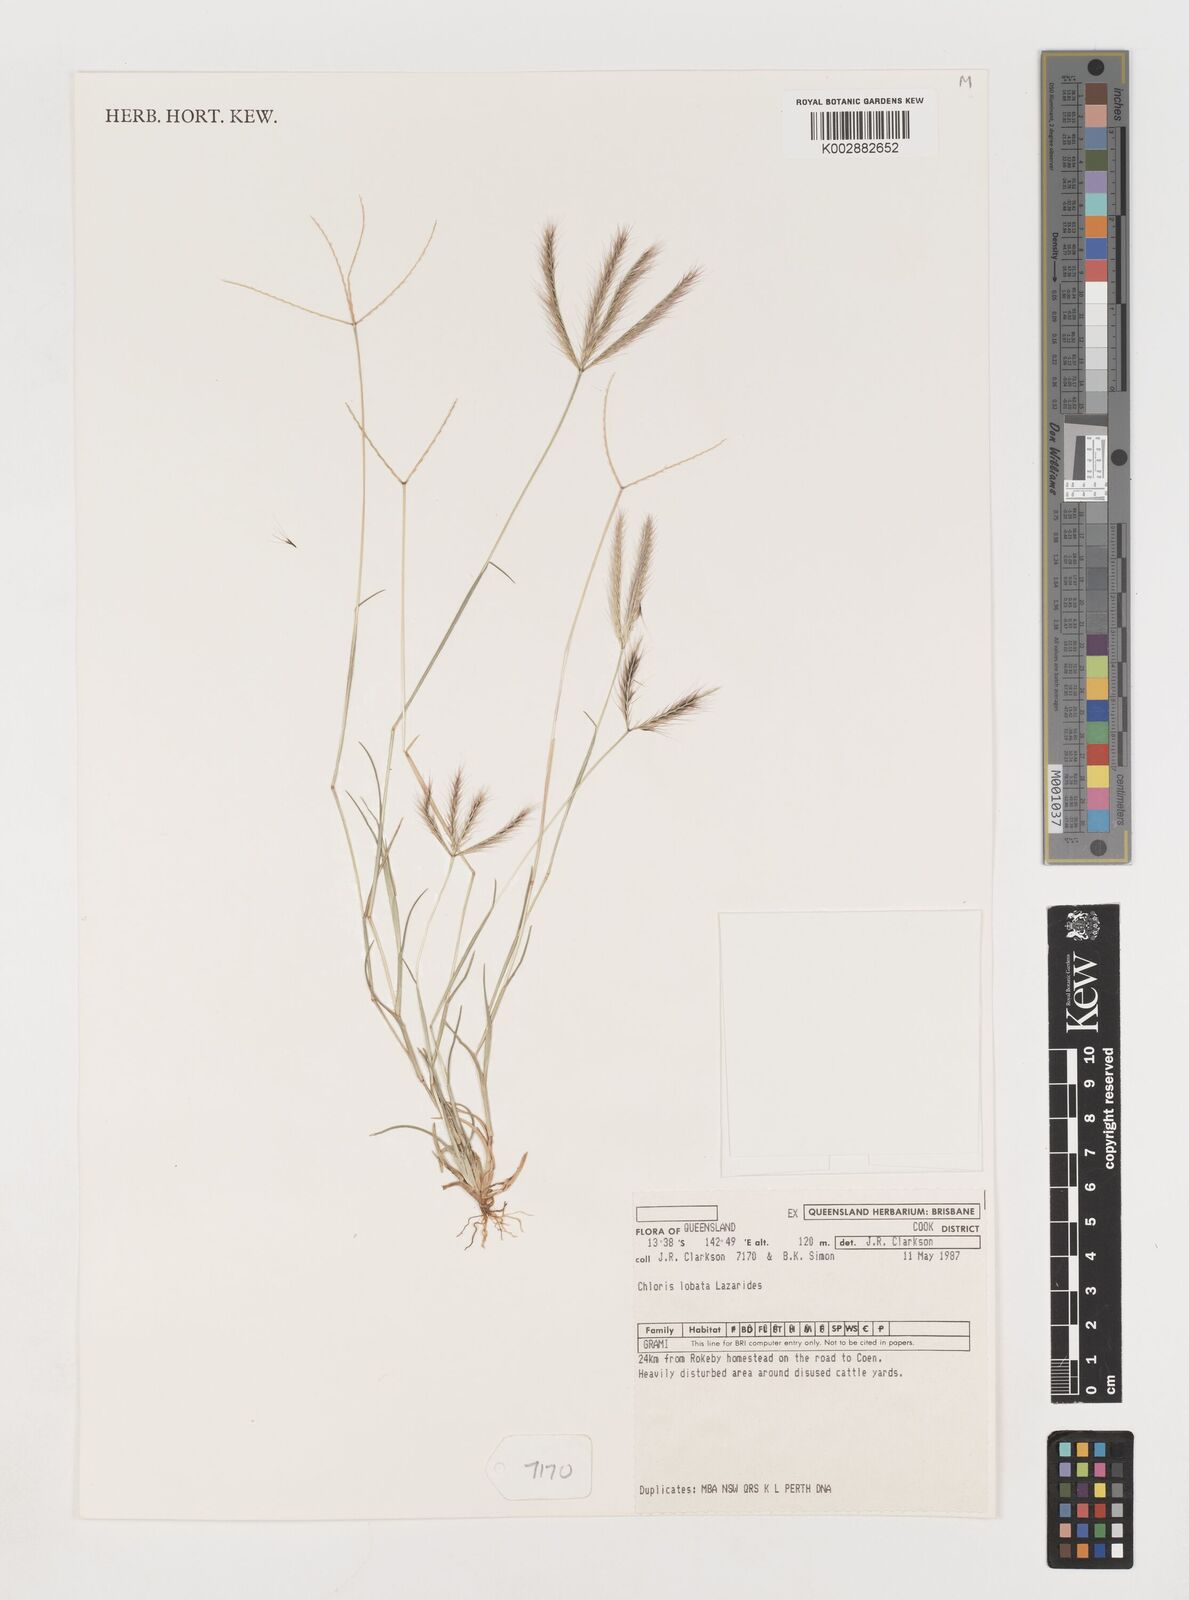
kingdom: Plantae
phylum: Tracheophyta
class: Liliopsida
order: Poales
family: Poaceae
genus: Chloris
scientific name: Chloris lobata
